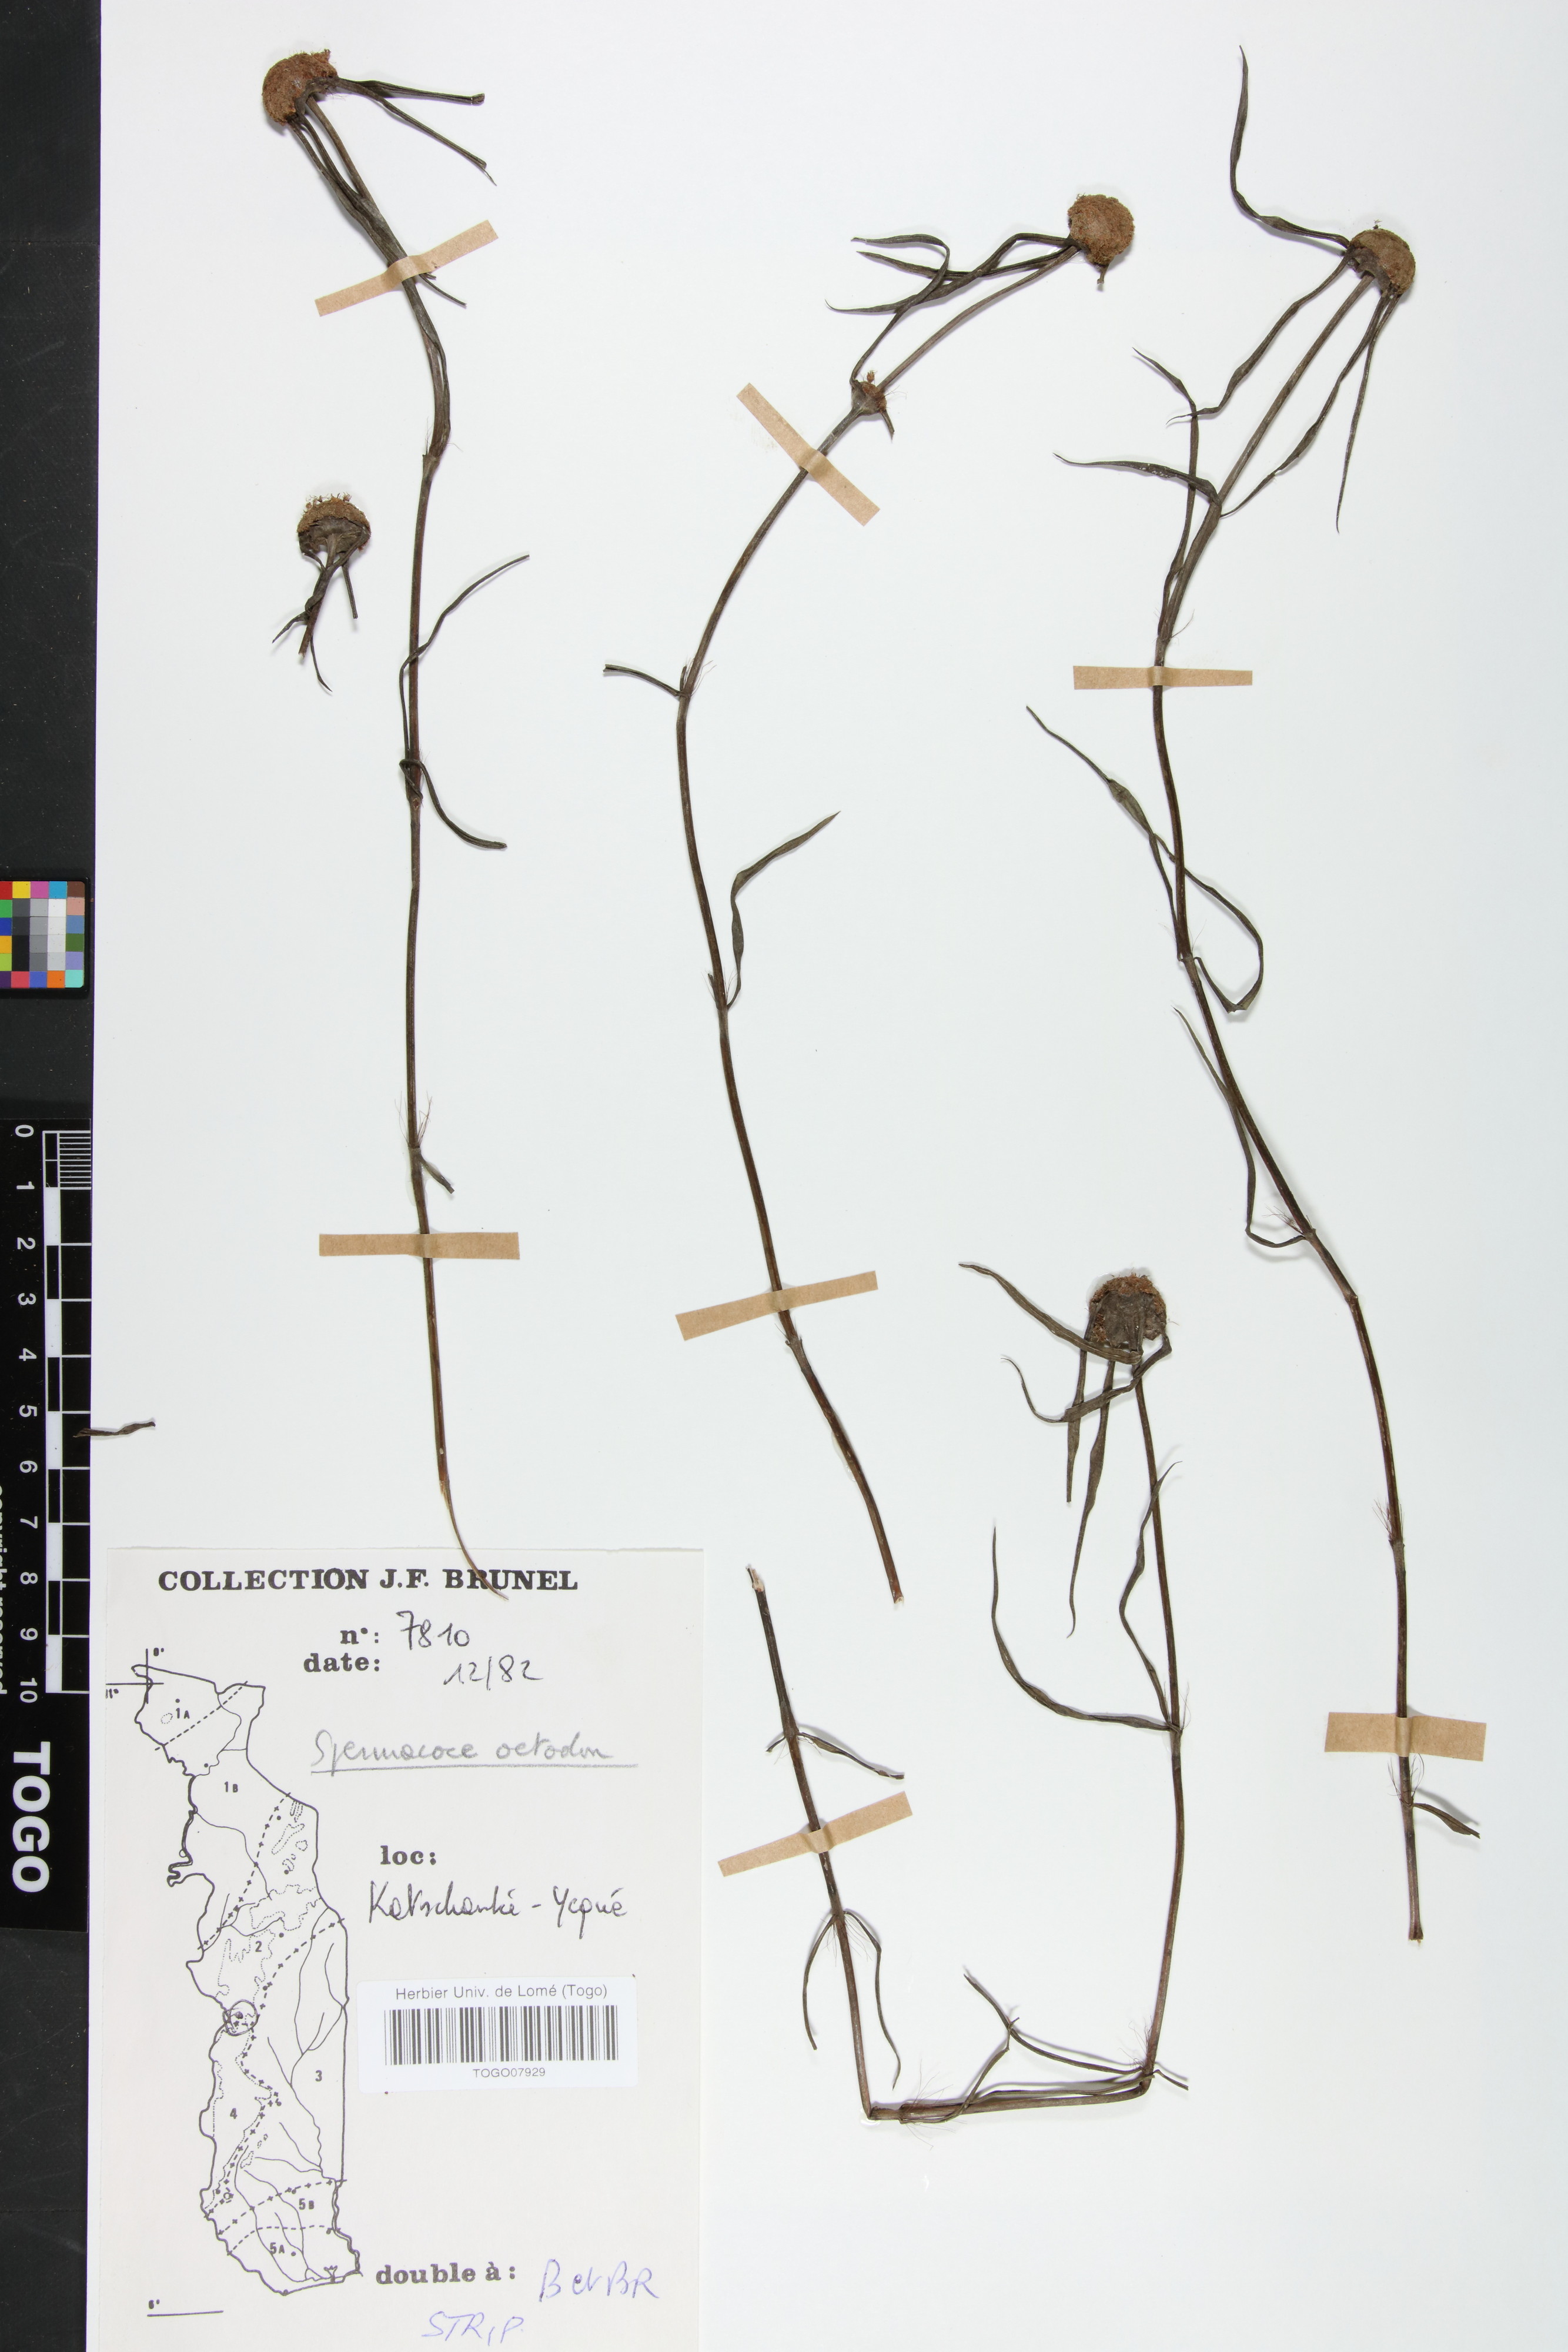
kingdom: Plantae
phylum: Tracheophyta
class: Magnoliopsida
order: Gentianales
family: Rubiaceae
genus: Spermacoce
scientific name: Spermacoce octodon
